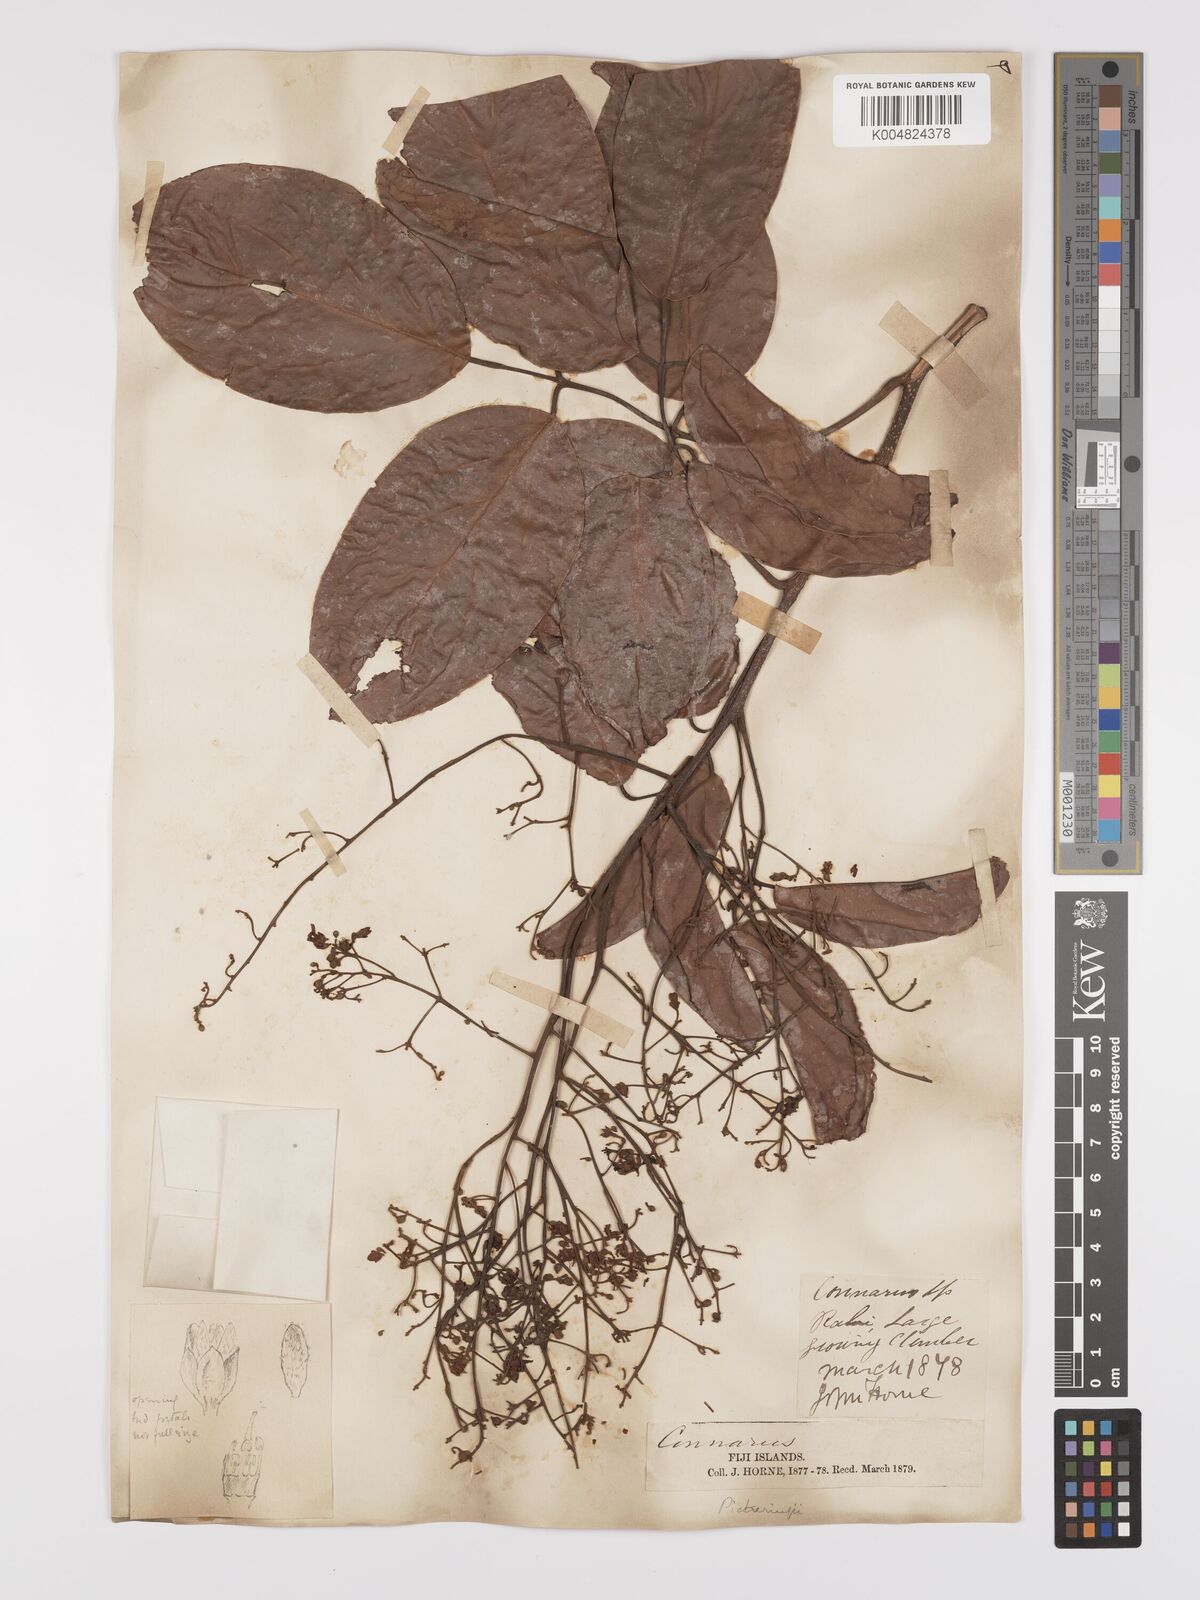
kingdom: Plantae
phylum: Tracheophyta
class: Magnoliopsida
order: Oxalidales
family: Connaraceae
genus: Connarus
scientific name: Connarus pickeringii
